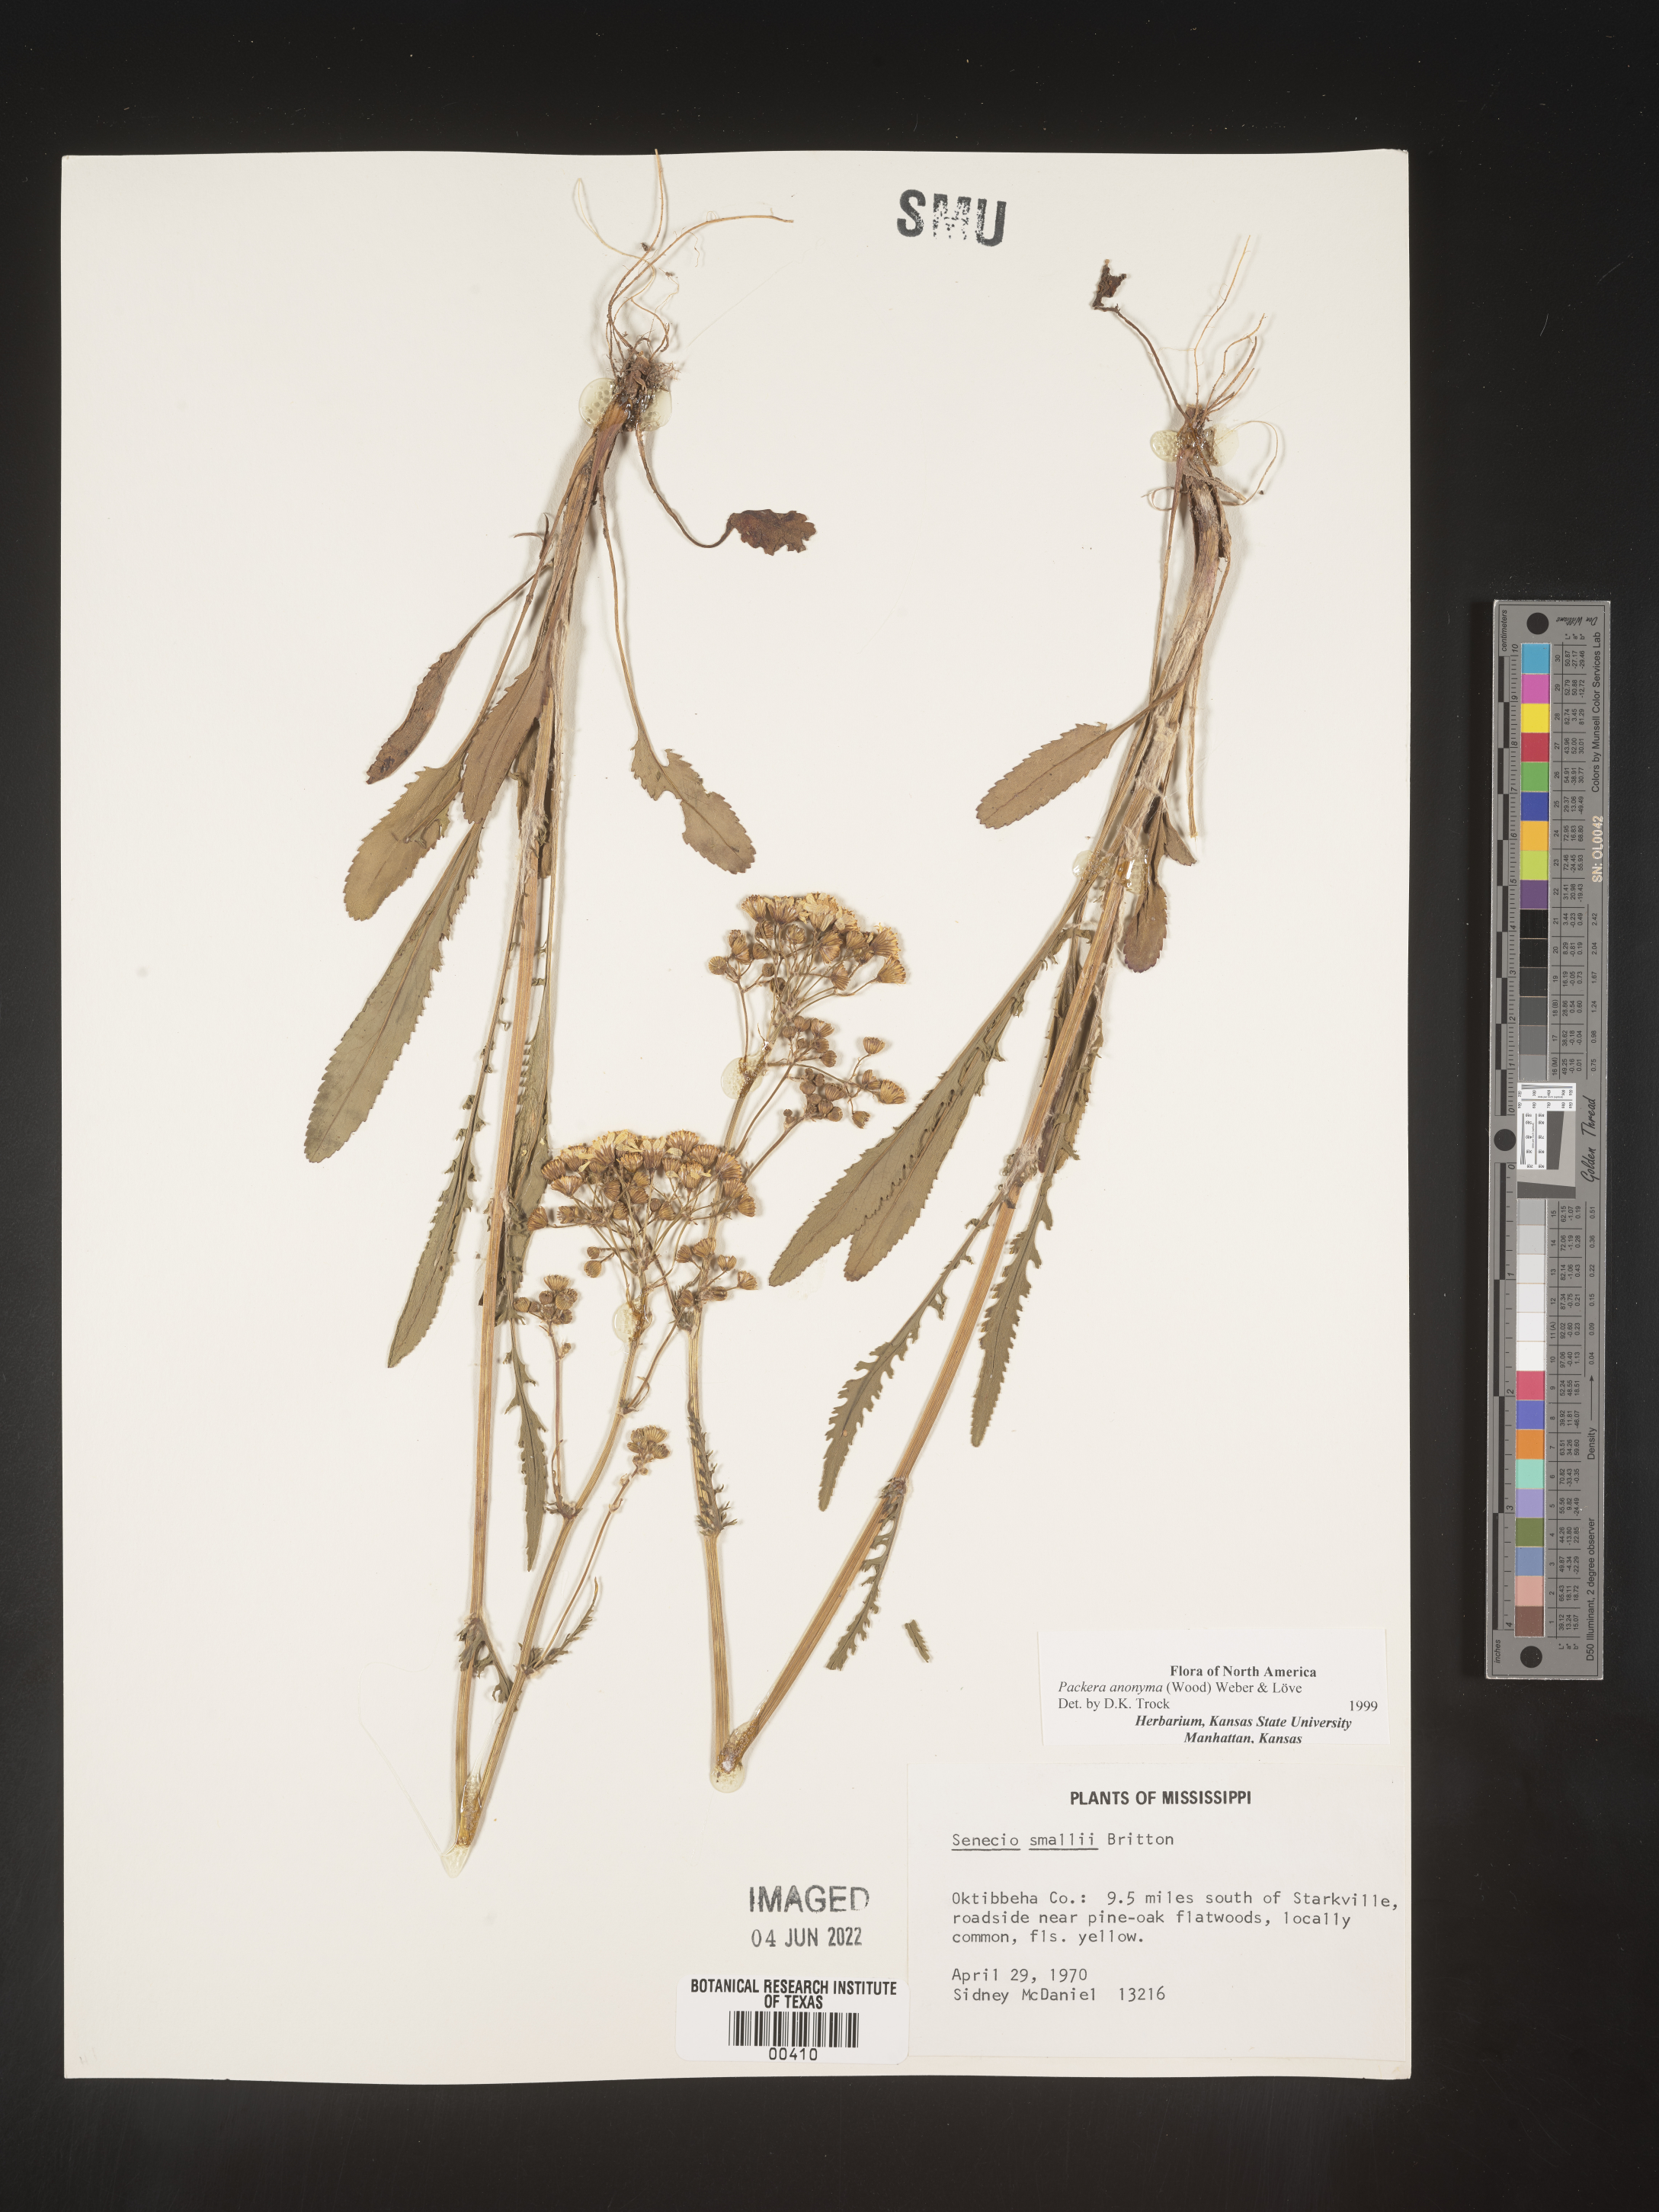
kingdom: Plantae
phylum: Tracheophyta
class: Magnoliopsida
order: Asterales
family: Asteraceae
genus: Packera
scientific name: Packera anonyma
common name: Small ragwort
